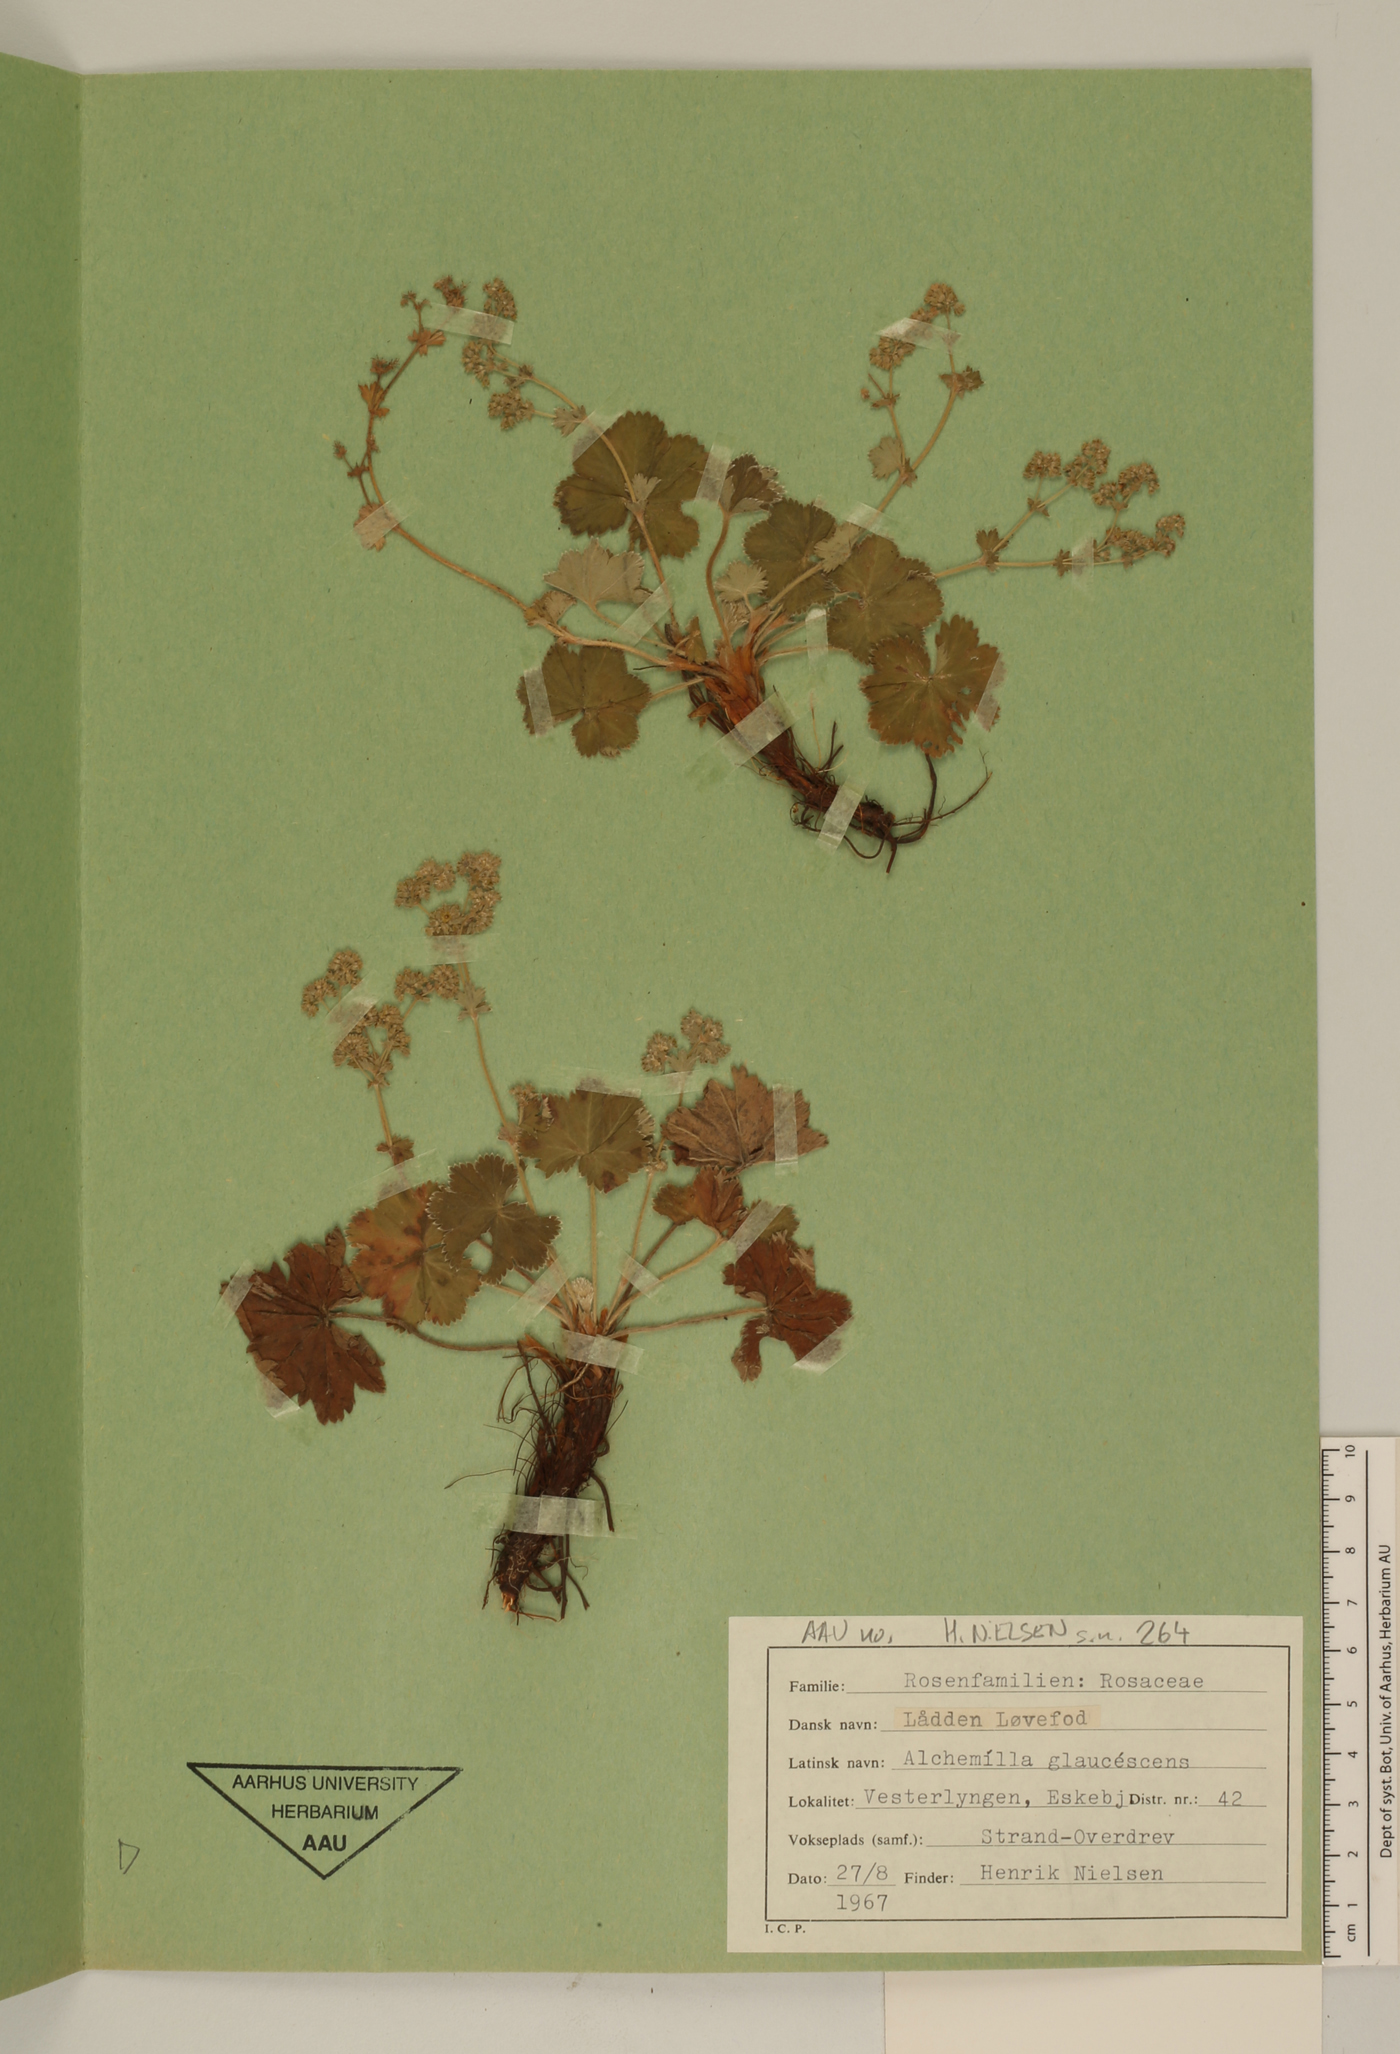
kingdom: Plantae
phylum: Tracheophyta
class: Magnoliopsida
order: Rosales
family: Rosaceae
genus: Alchemilla
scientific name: Alchemilla glaucescens
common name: Silky lady's mantle
